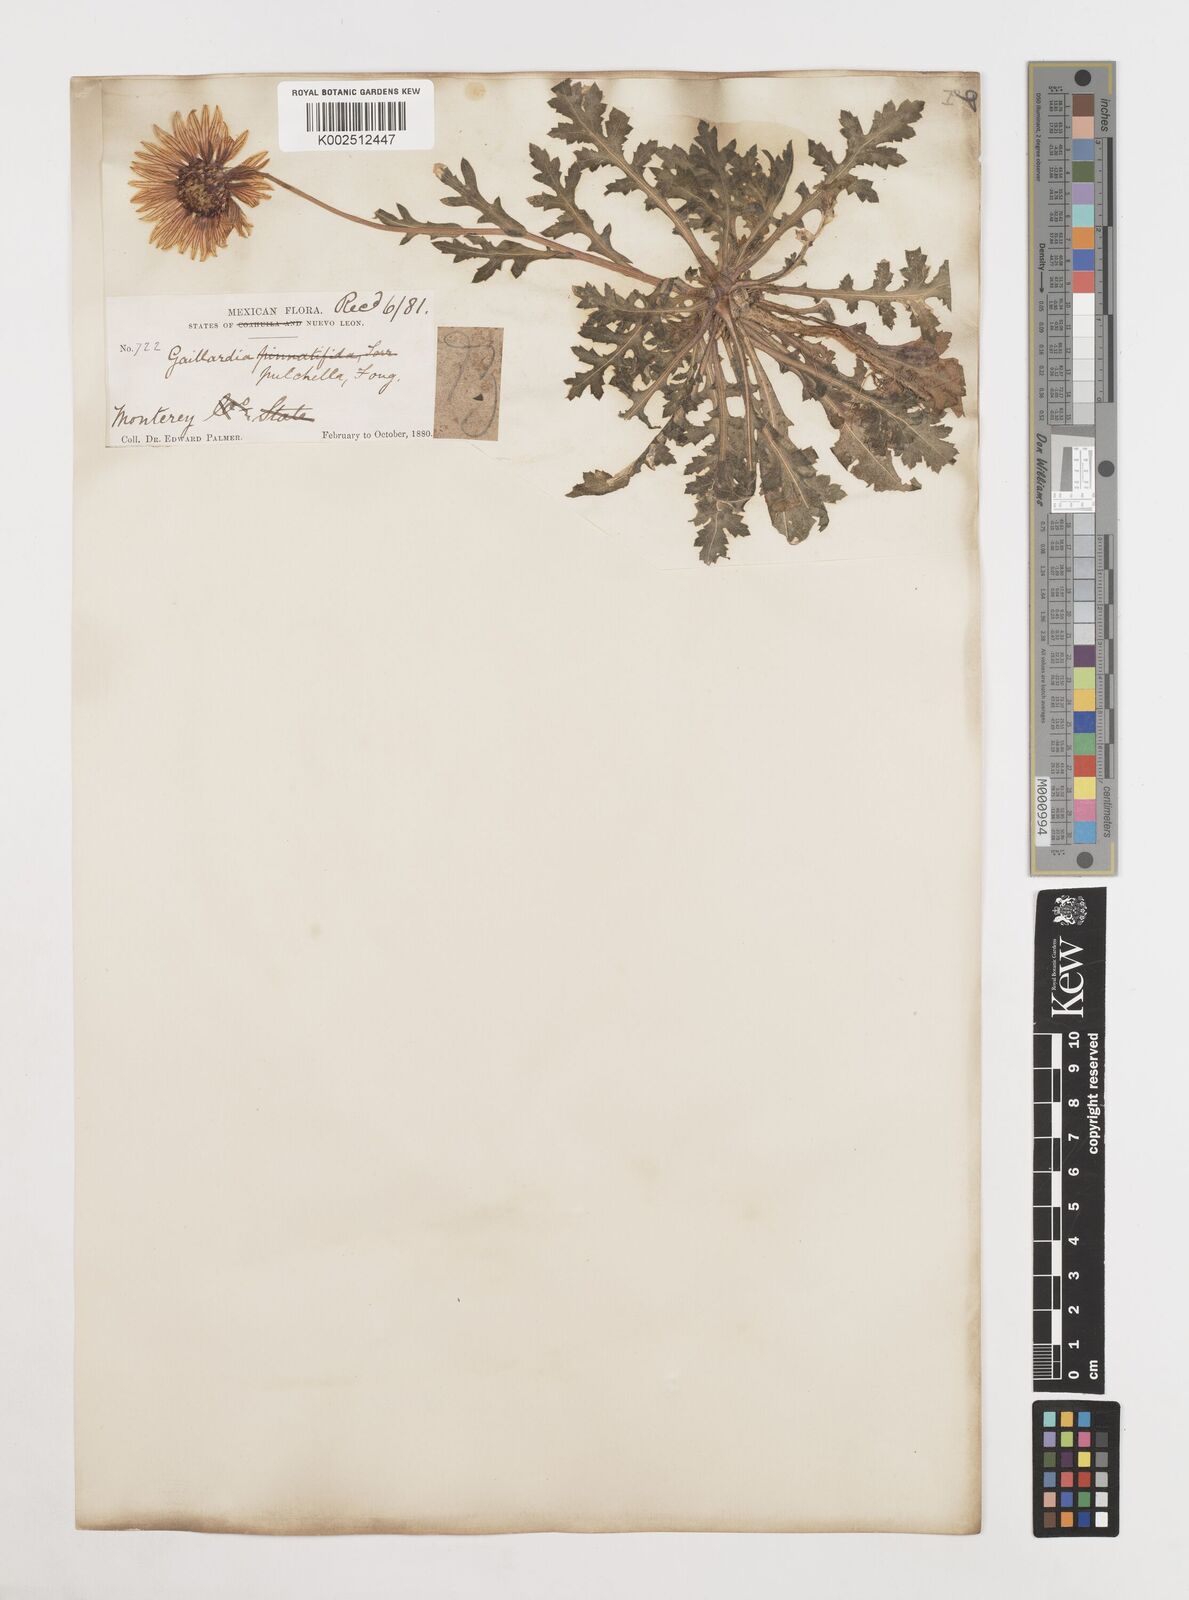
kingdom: Plantae
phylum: Tracheophyta
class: Magnoliopsida
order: Asterales
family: Asteraceae
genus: Gaillardia
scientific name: Gaillardia pulchella
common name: Firewheel
